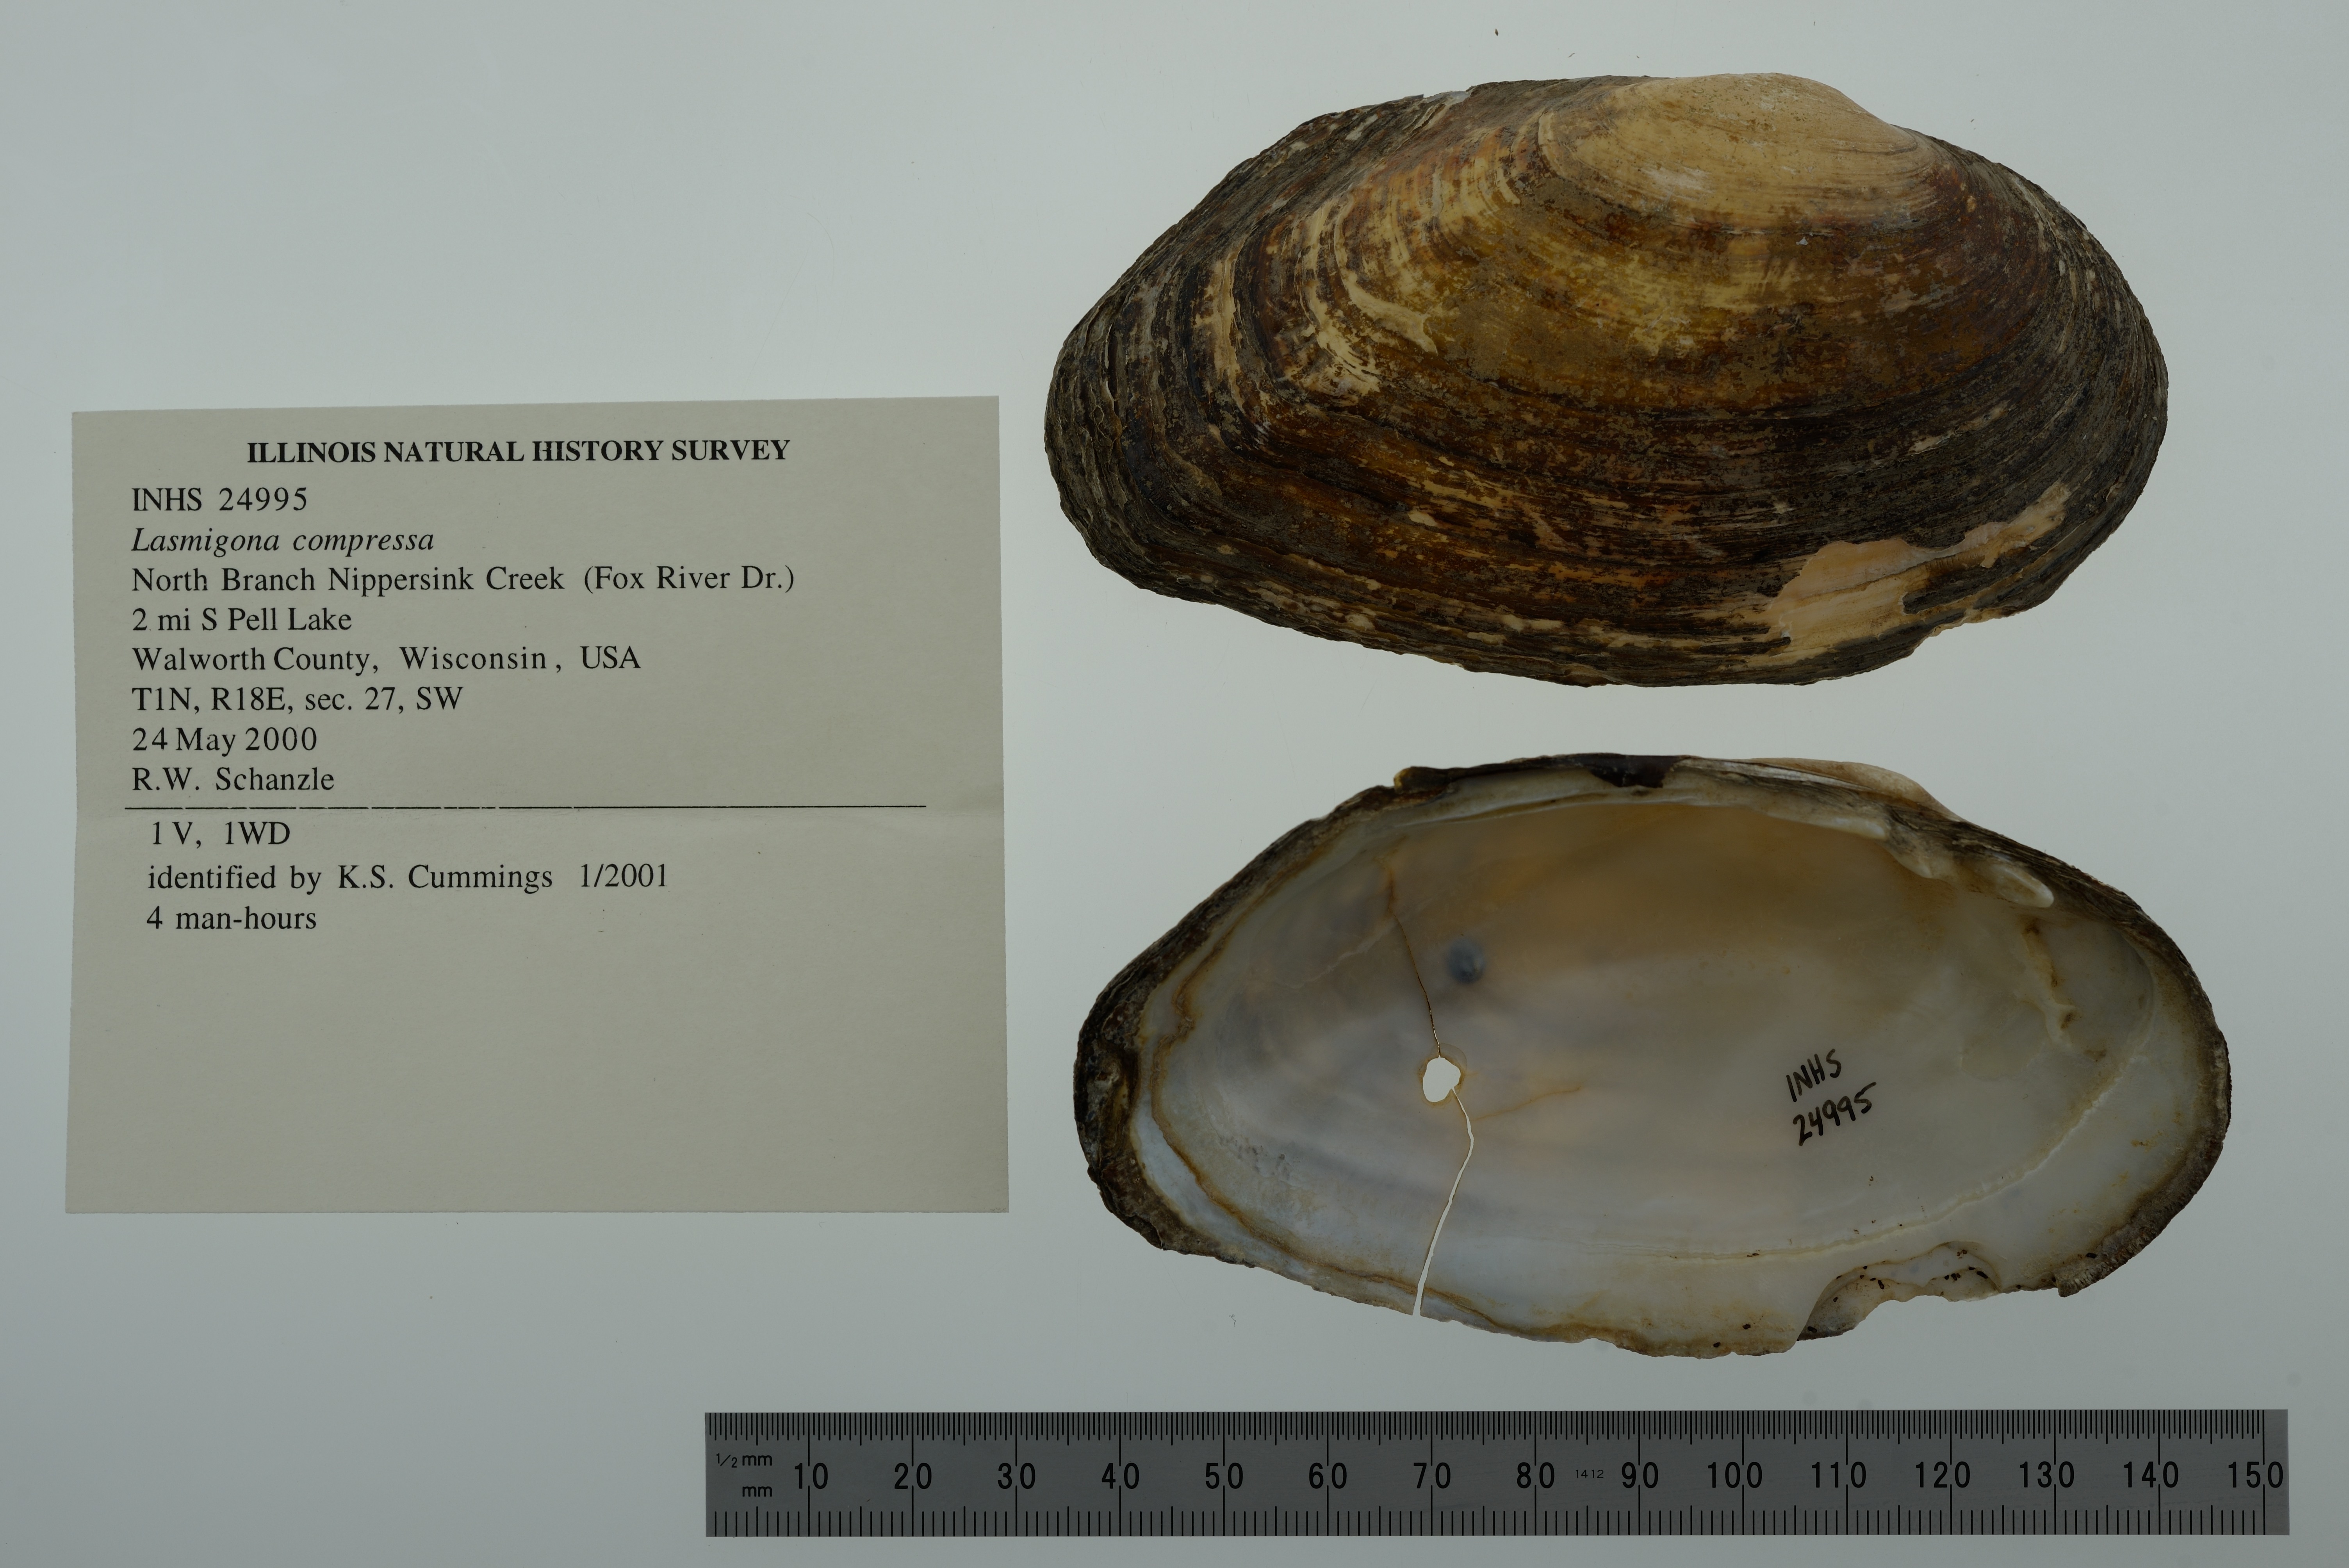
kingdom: Animalia
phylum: Mollusca
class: Bivalvia
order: Unionida
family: Unionidae
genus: Lasmigona
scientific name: Lasmigona compressa
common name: Creek heelsplitter
